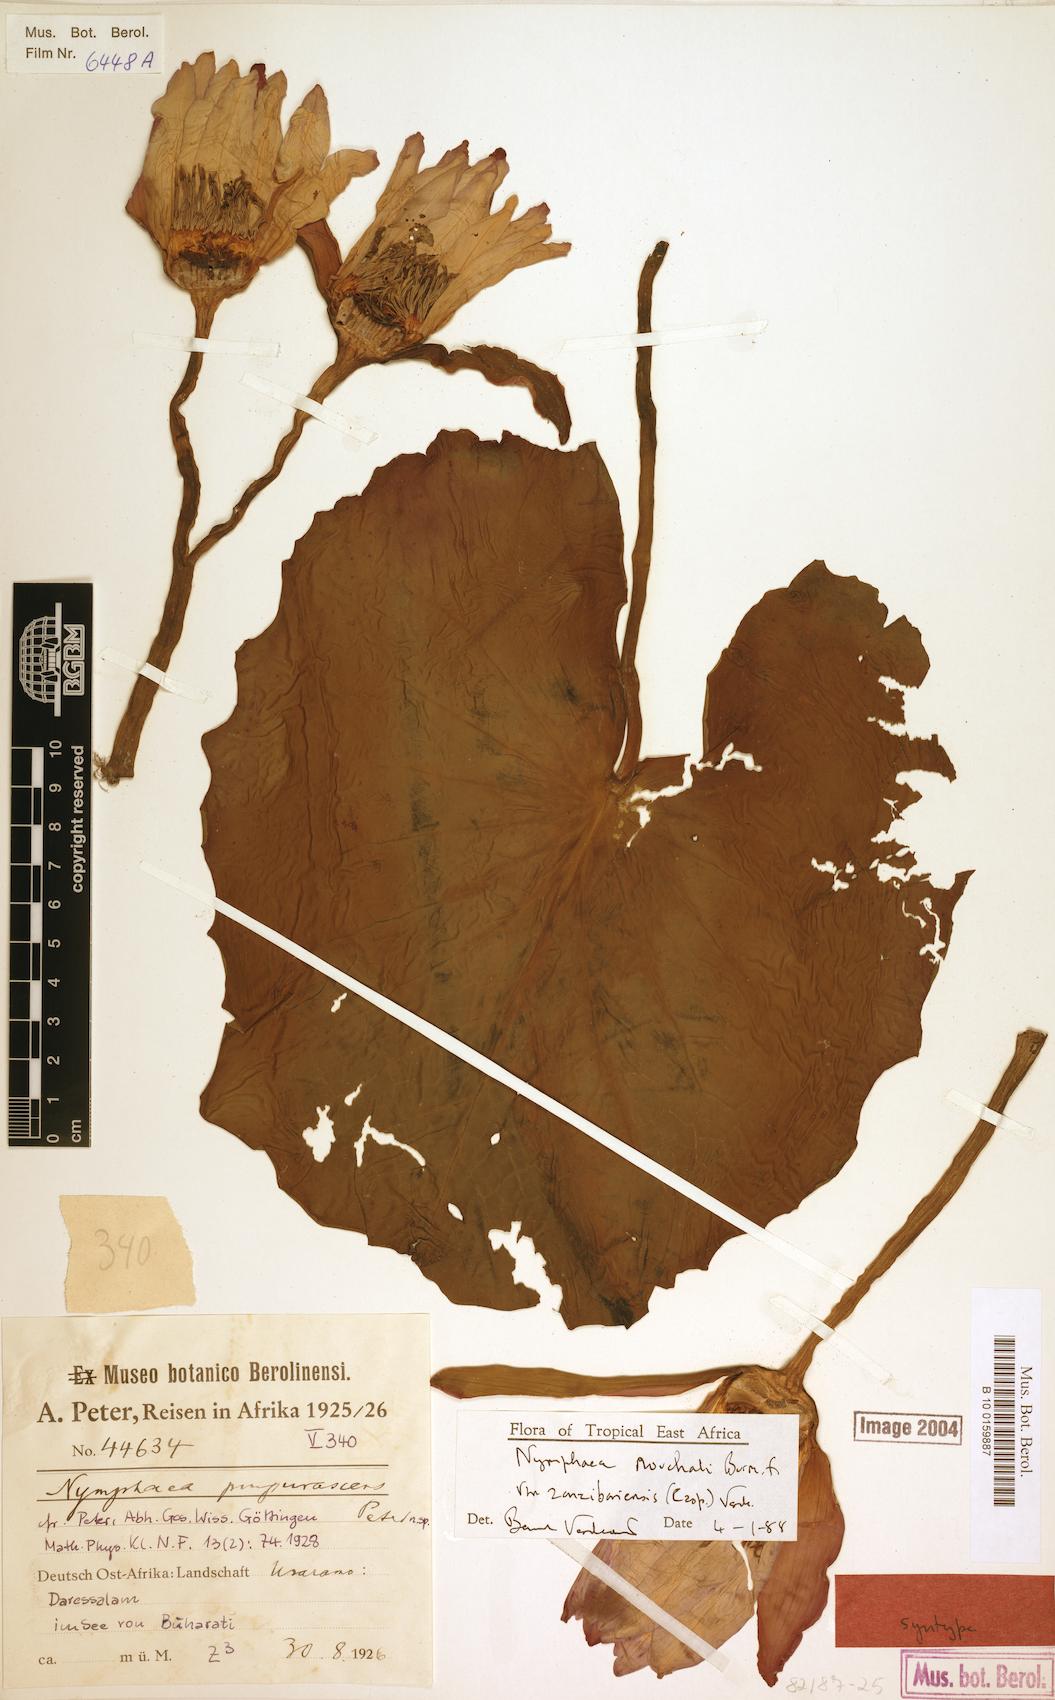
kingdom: Plantae
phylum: Tracheophyta
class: Magnoliopsida
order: Nymphaeales
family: Nymphaeaceae
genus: Nymphaea
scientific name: Nymphaea nouchali
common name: Blue lotus
